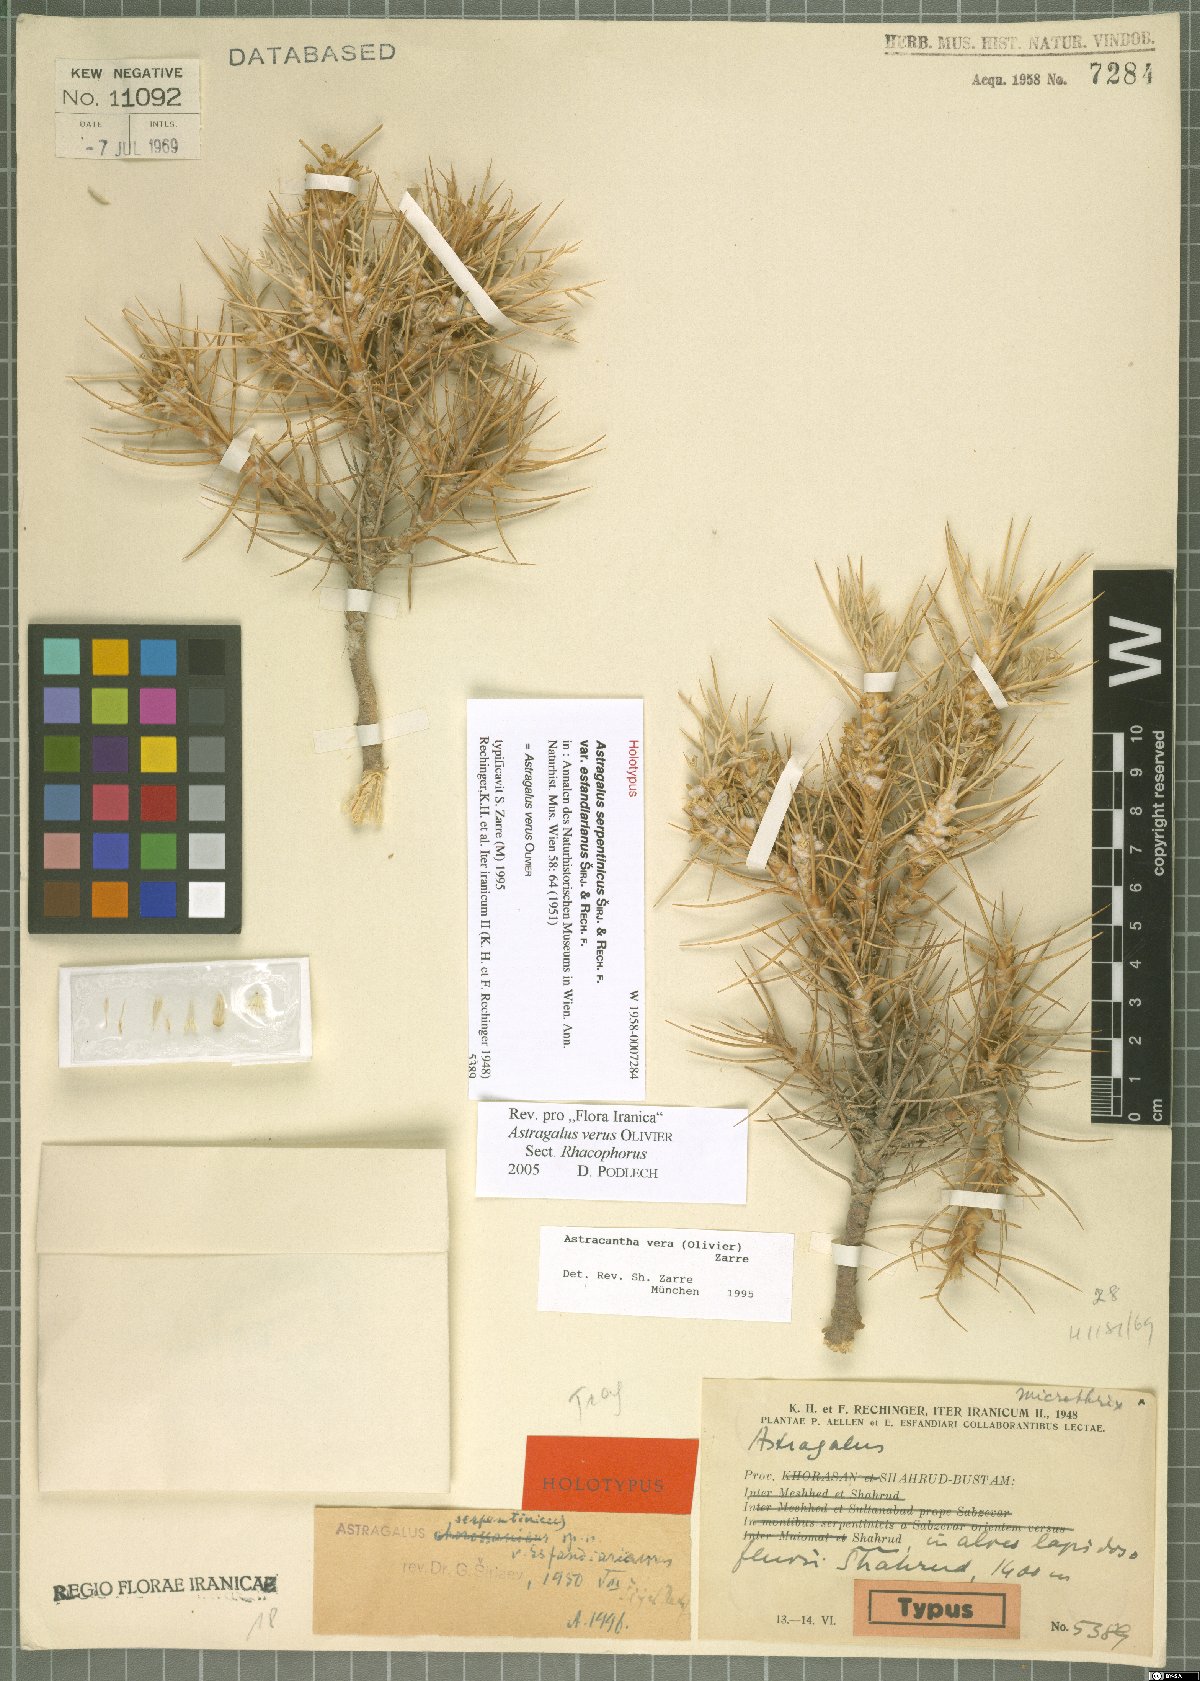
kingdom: Plantae
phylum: Tracheophyta
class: Magnoliopsida
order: Fabales
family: Fabaceae
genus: Astragalus
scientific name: Astragalus verus
